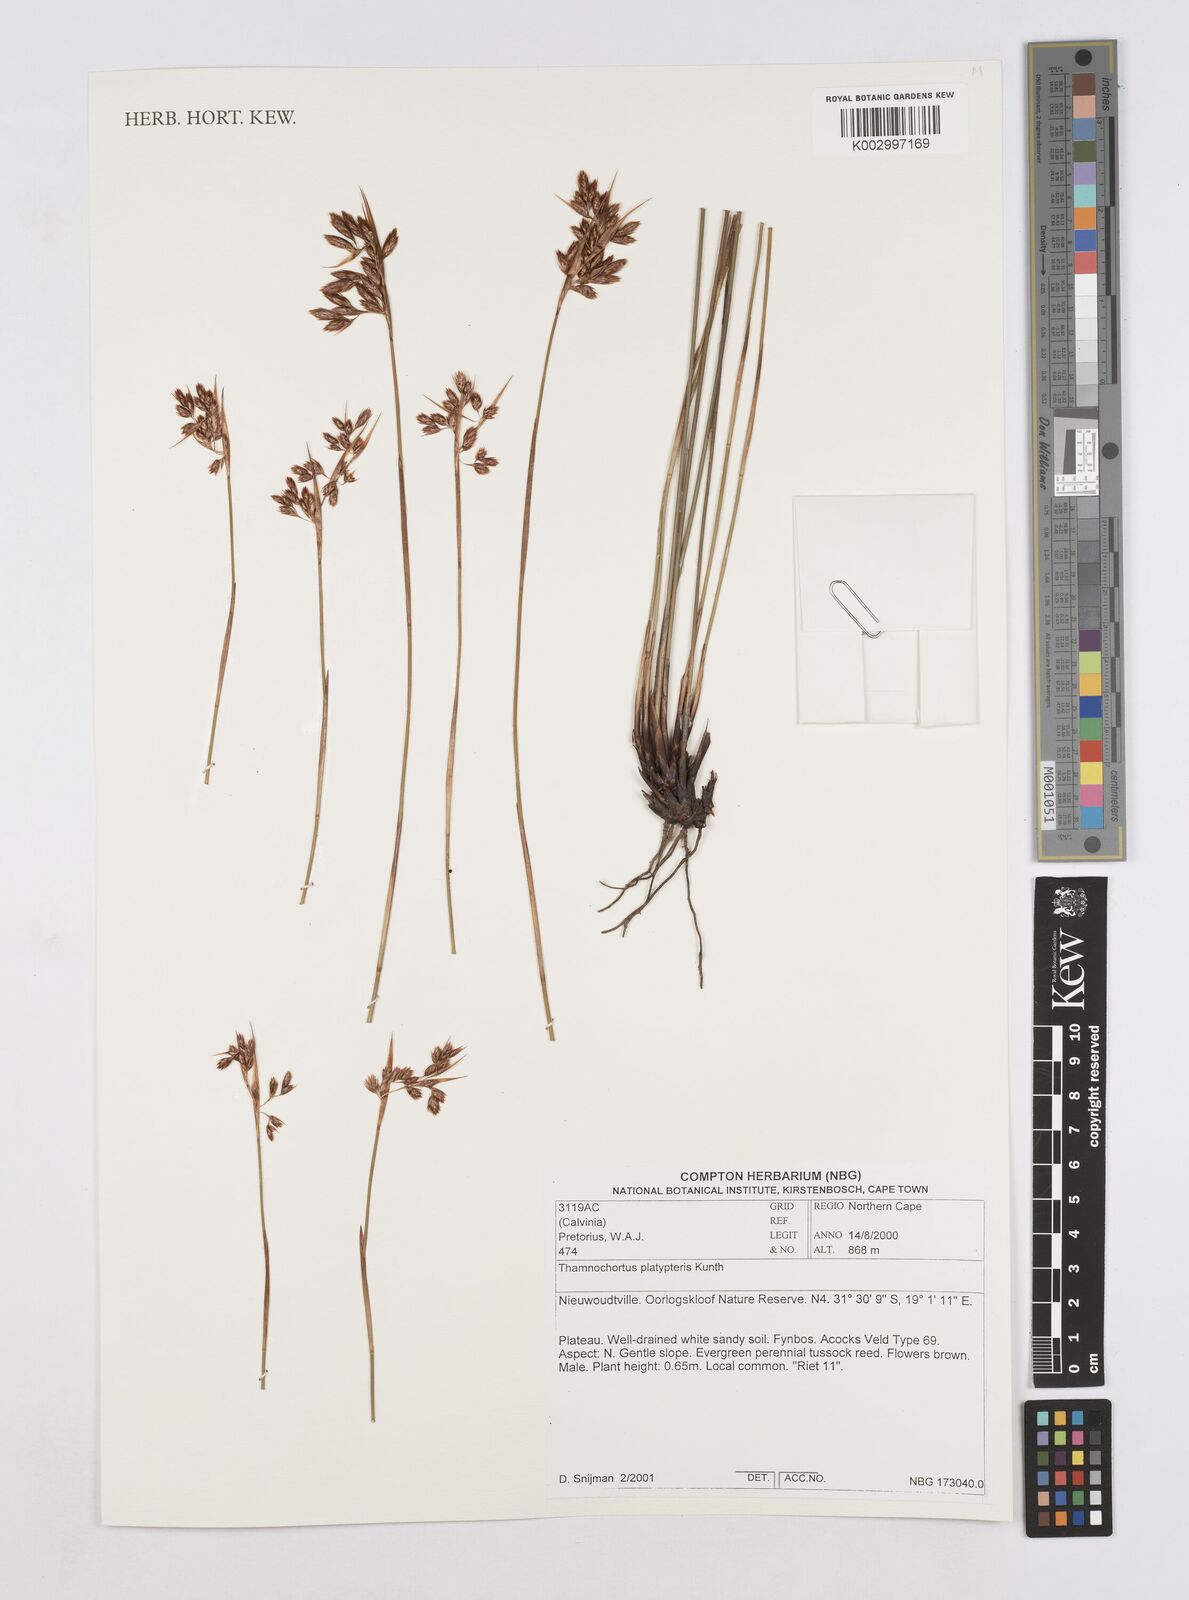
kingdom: Plantae
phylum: Tracheophyta
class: Liliopsida
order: Poales
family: Restionaceae
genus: Thamnochortus
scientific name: Thamnochortus platypteris
